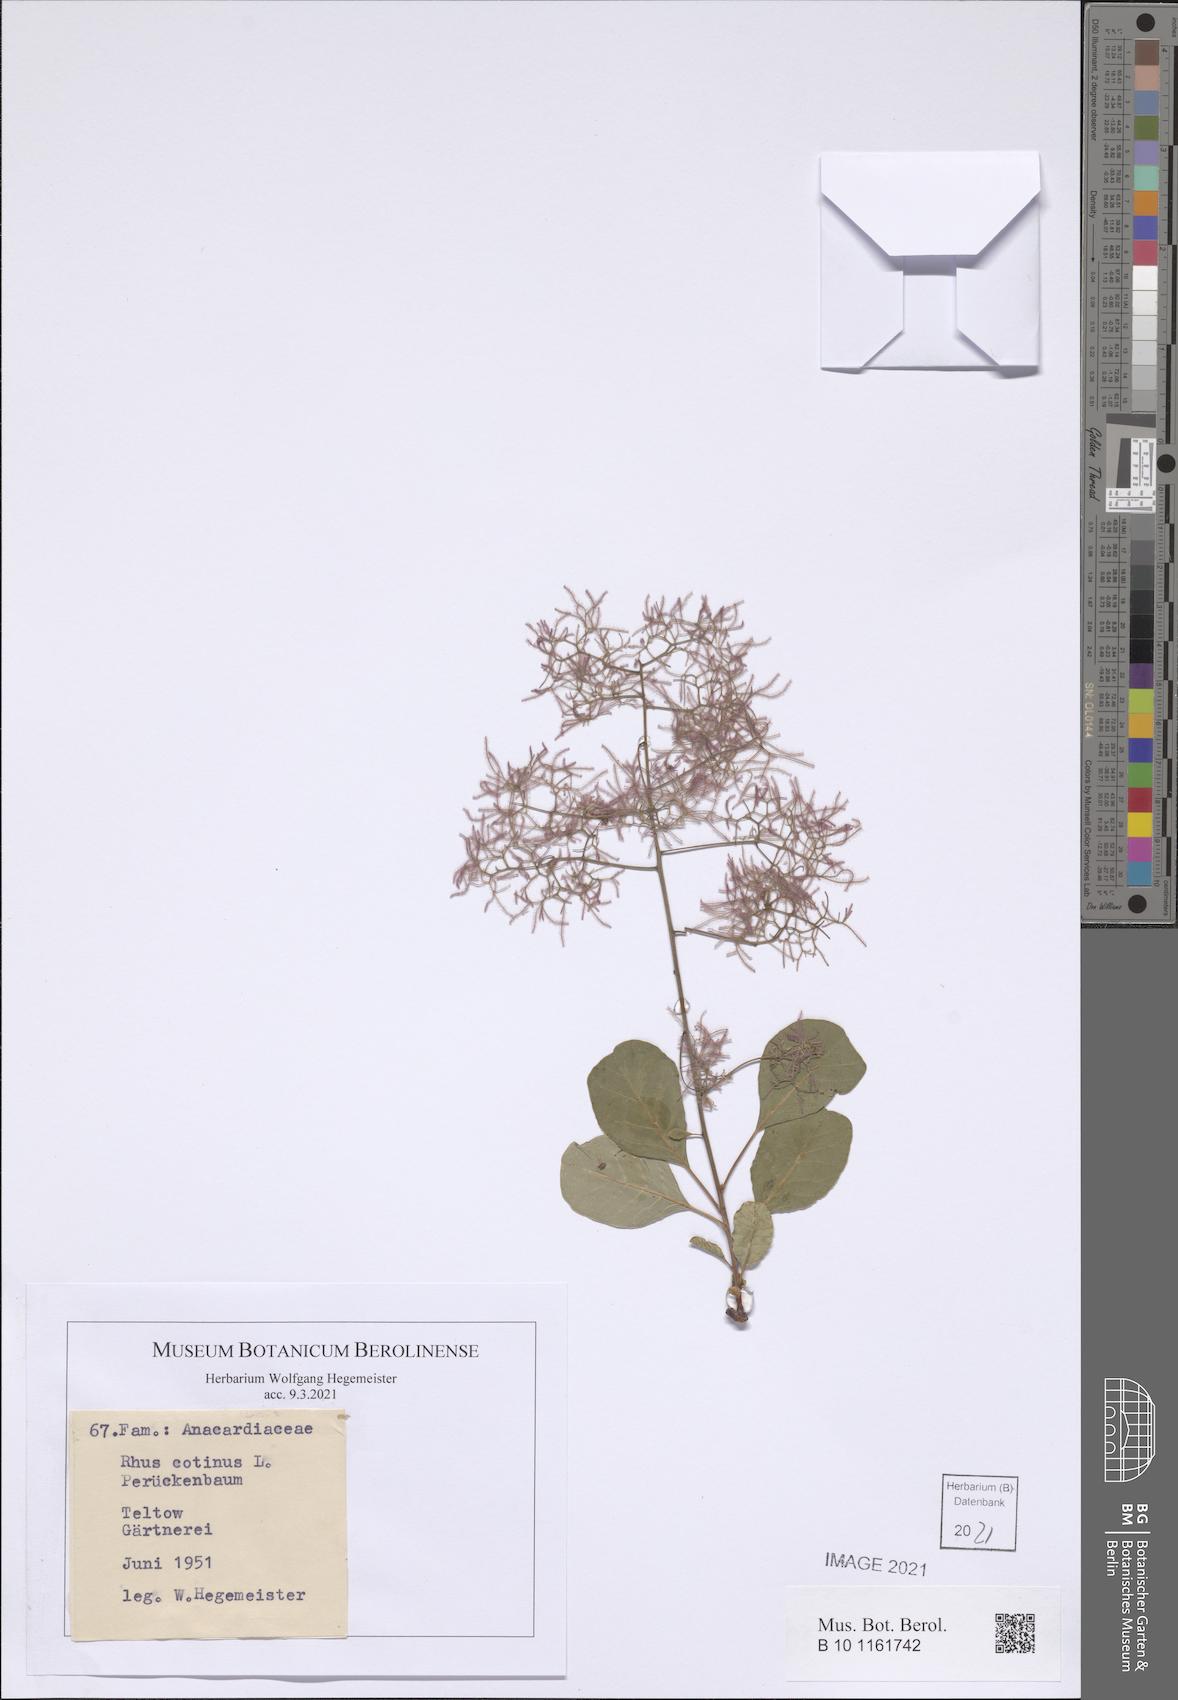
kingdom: Plantae
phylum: Tracheophyta
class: Magnoliopsida
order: Sapindales
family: Anacardiaceae
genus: Cotinus
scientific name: Cotinus coggygria
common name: Smoke-tree
